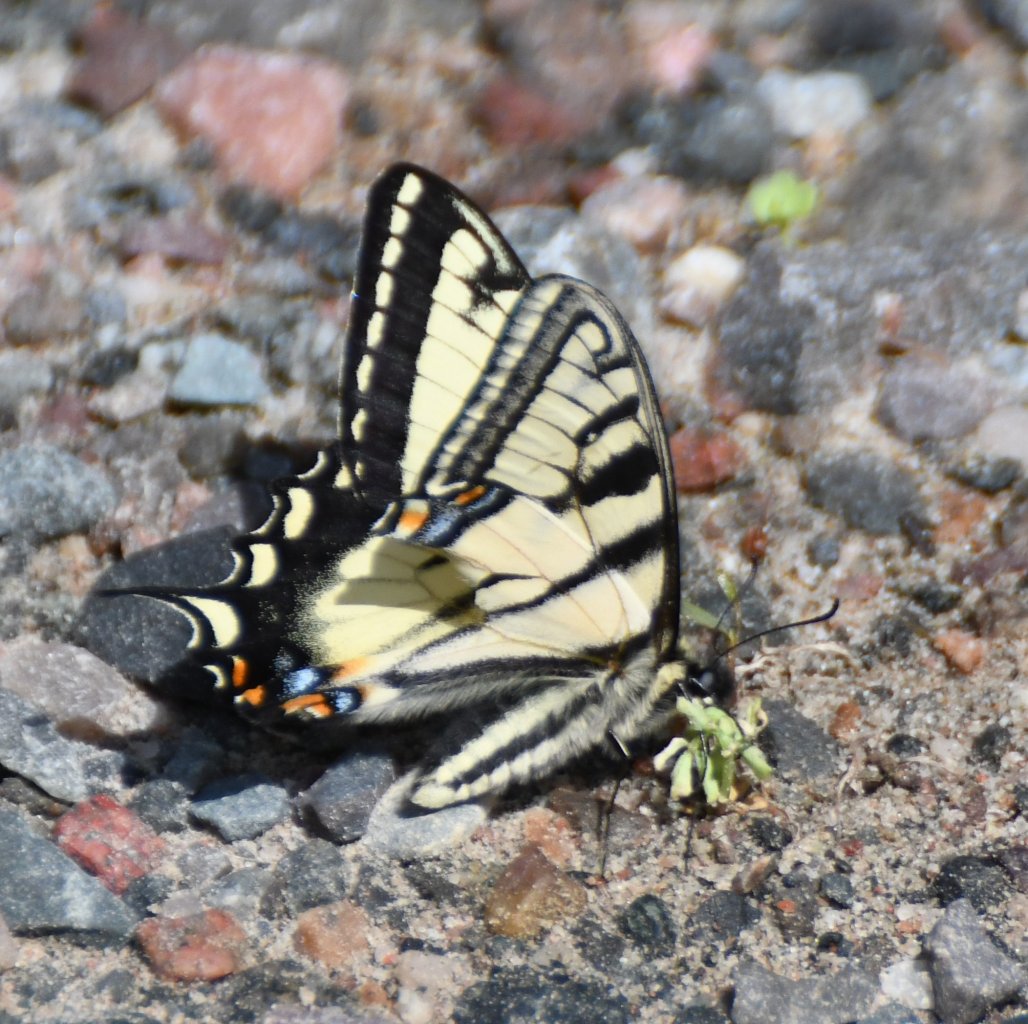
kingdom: Animalia
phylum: Arthropoda
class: Insecta
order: Lepidoptera
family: Papilionidae
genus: Pterourus
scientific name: Pterourus canadensis
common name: Canadian Tiger Swallowtail
